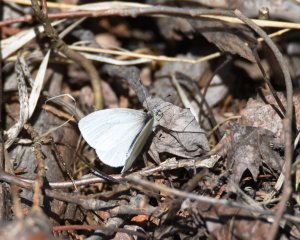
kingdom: Animalia
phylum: Arthropoda
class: Insecta
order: Lepidoptera
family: Pieridae
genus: Pieris
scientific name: Pieris virginiensis
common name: West Virginia White
